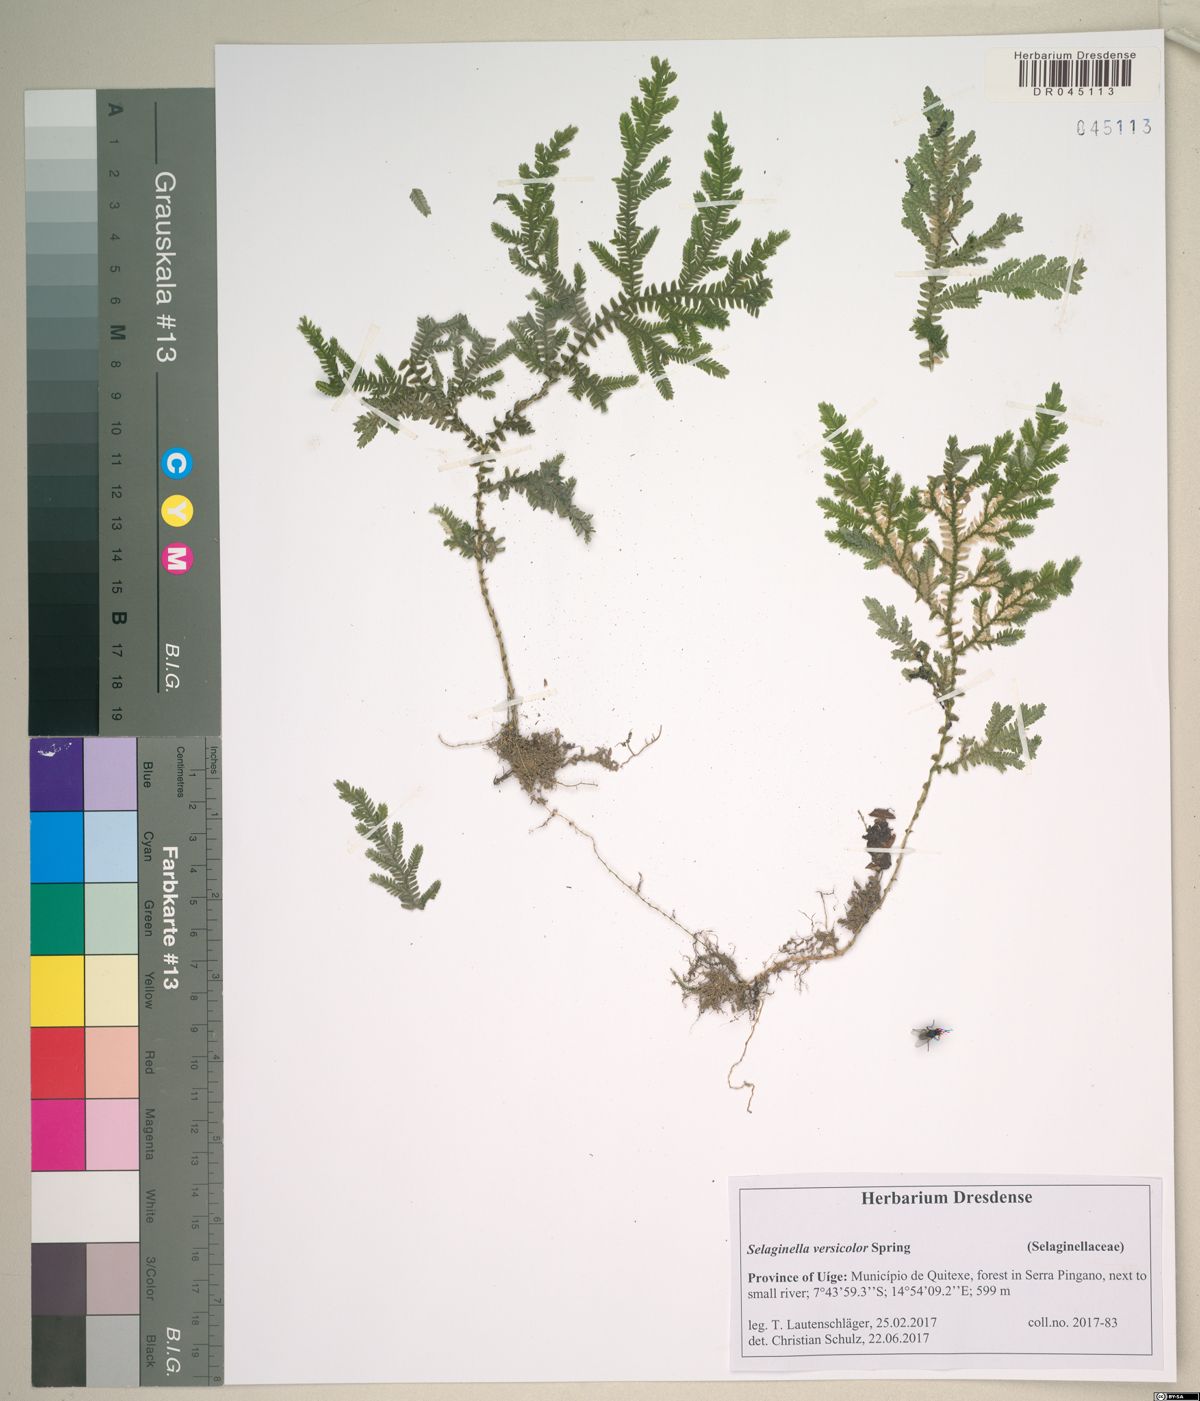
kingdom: Plantae
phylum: Tracheophyta
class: Lycopodiopsida
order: Selaginellales
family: Selaginellaceae
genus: Selaginella
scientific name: Selaginella versicolor
